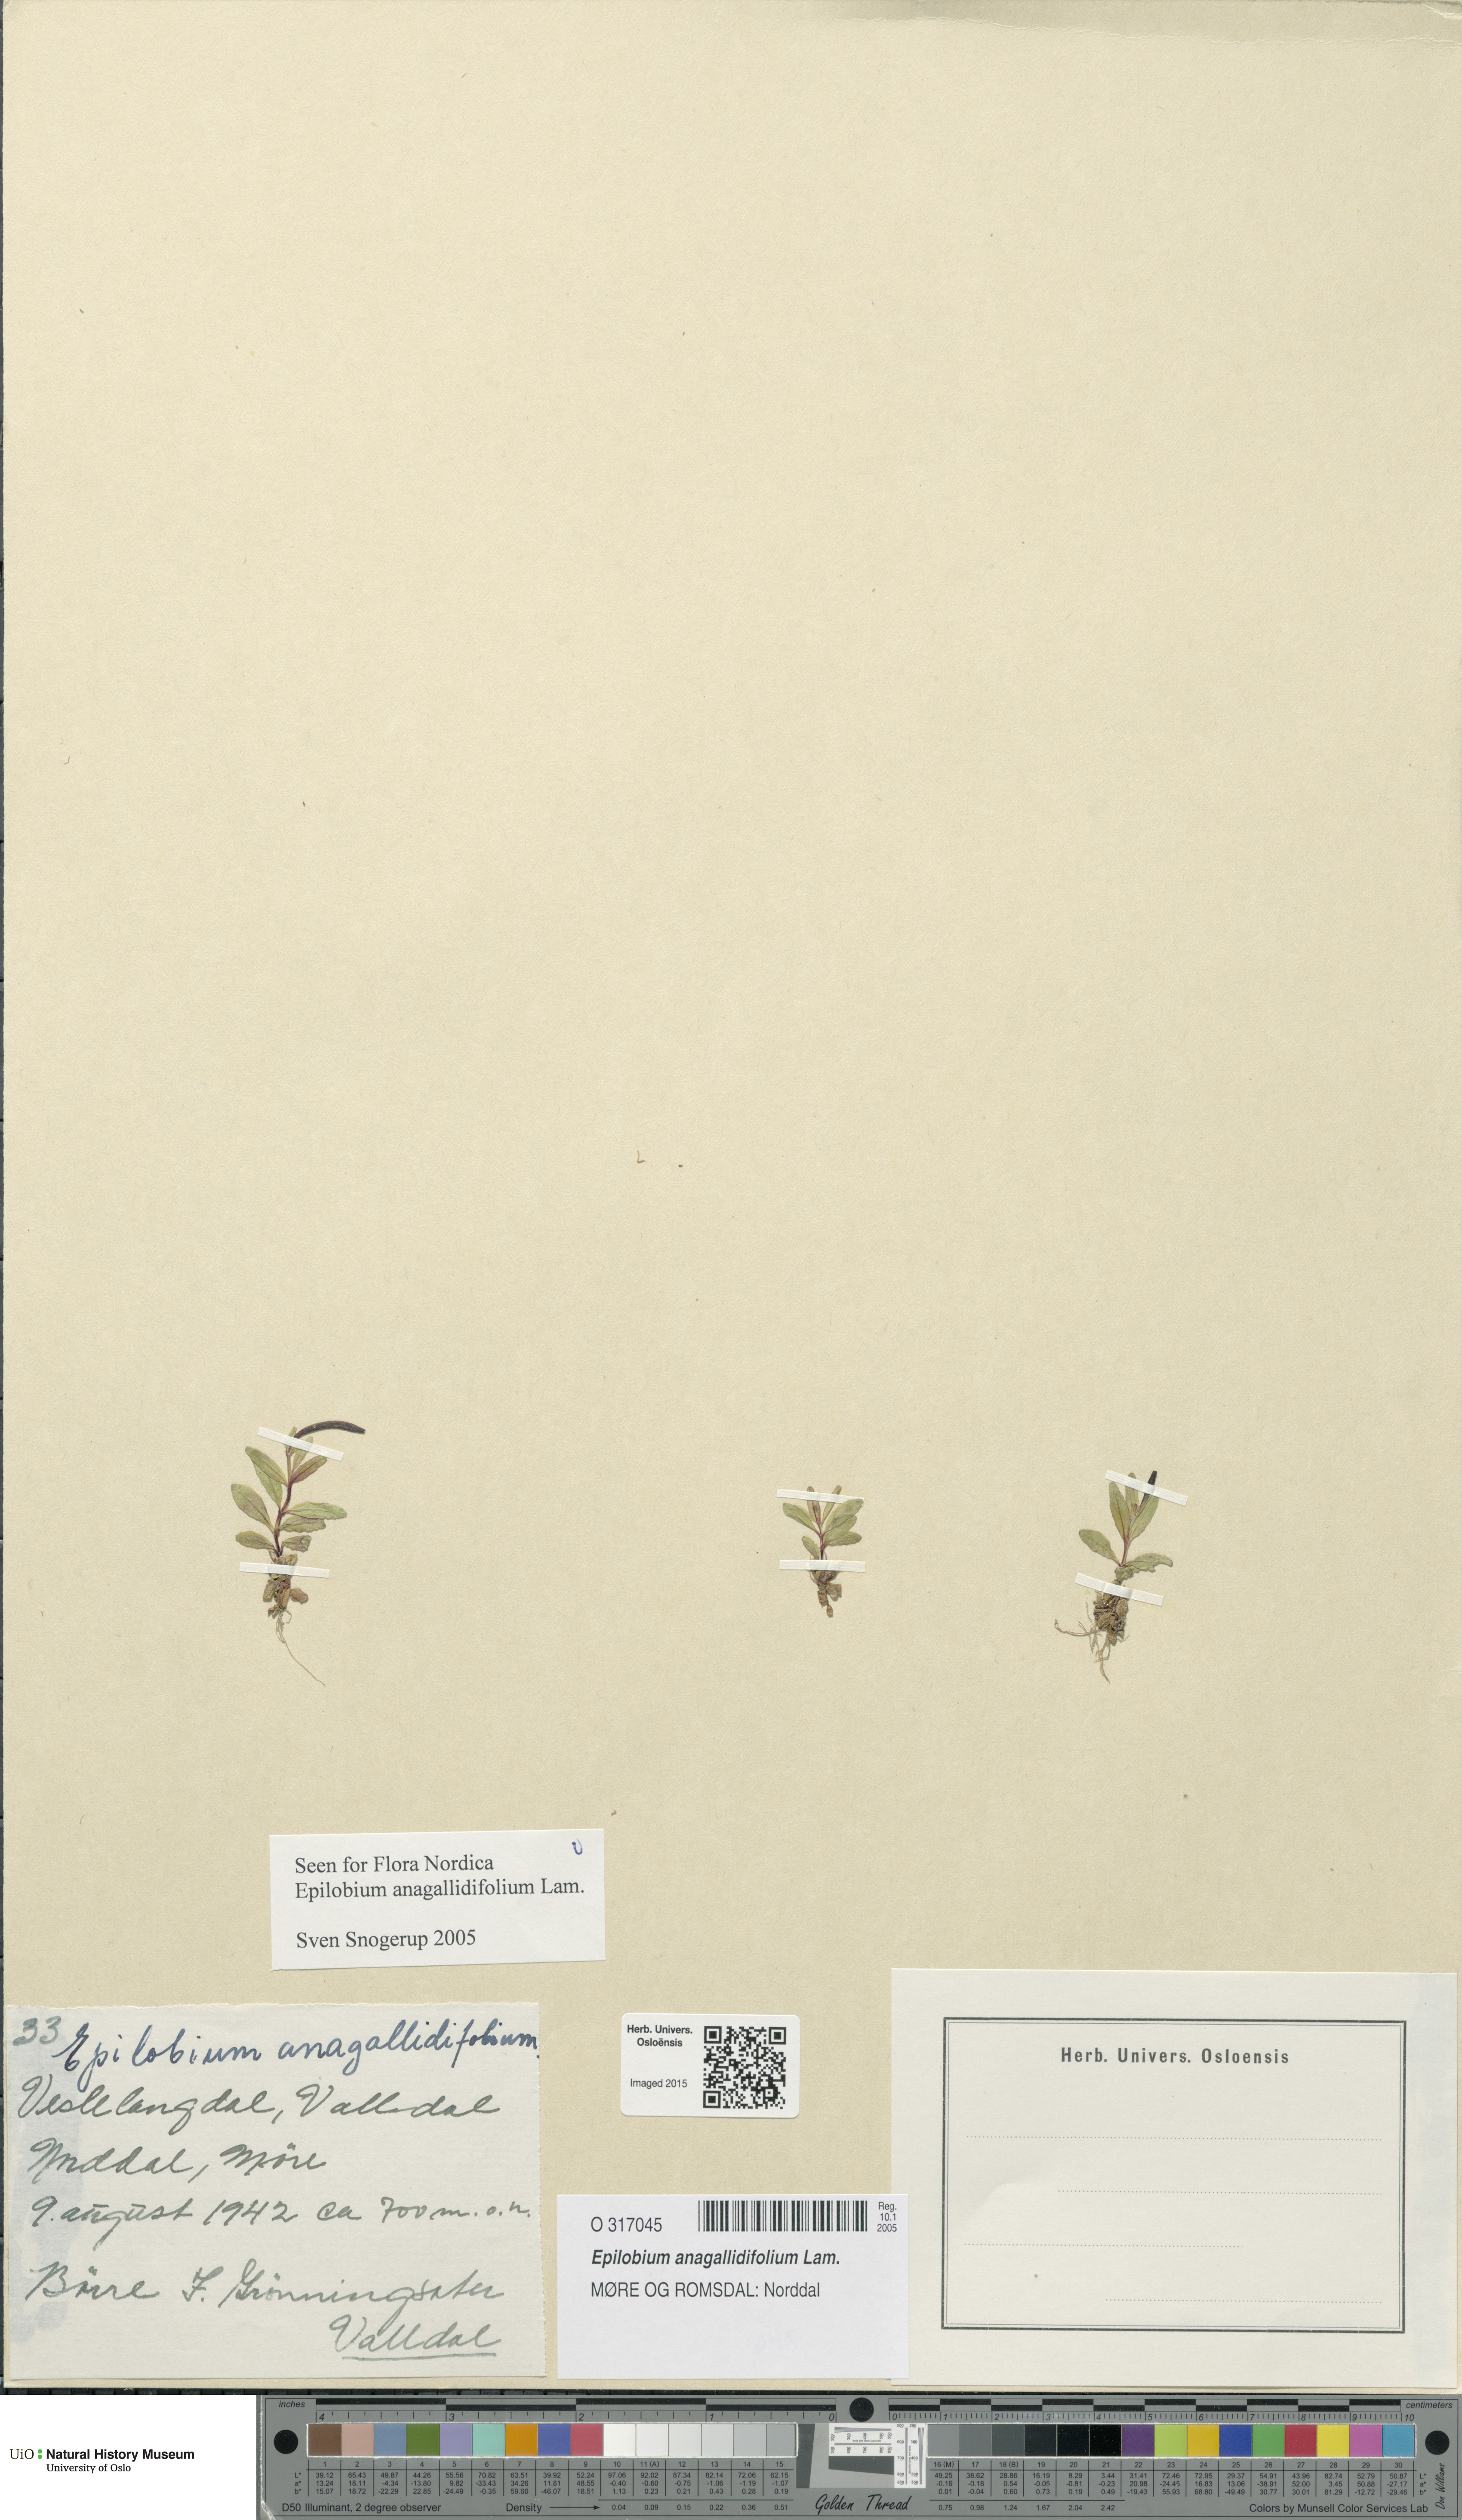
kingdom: Plantae
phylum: Tracheophyta
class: Magnoliopsida
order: Myrtales
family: Onagraceae
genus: Epilobium
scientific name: Epilobium anagallidifolium
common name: Alpine willowherb
